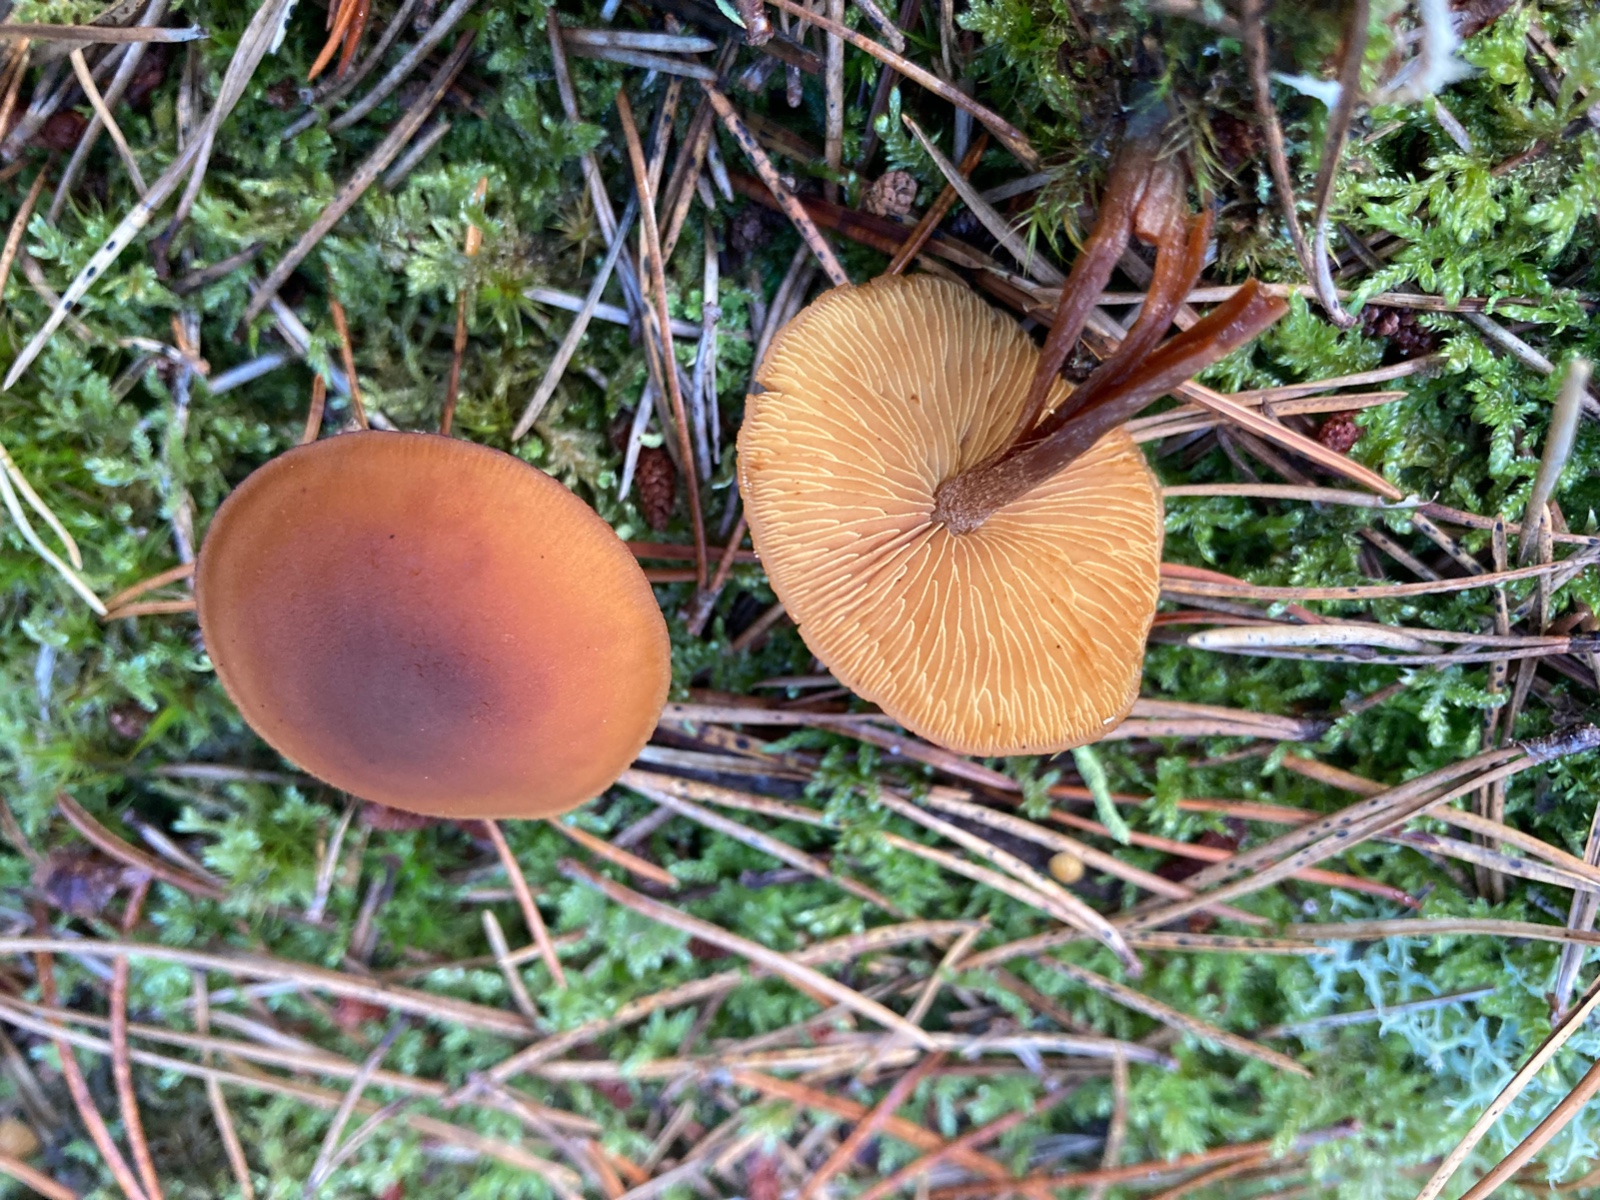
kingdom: Fungi
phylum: Basidiomycota
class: Agaricomycetes
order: Agaricales
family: Hymenogastraceae
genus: Gymnopilus
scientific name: Gymnopilus picreus
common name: puklet flammehat
